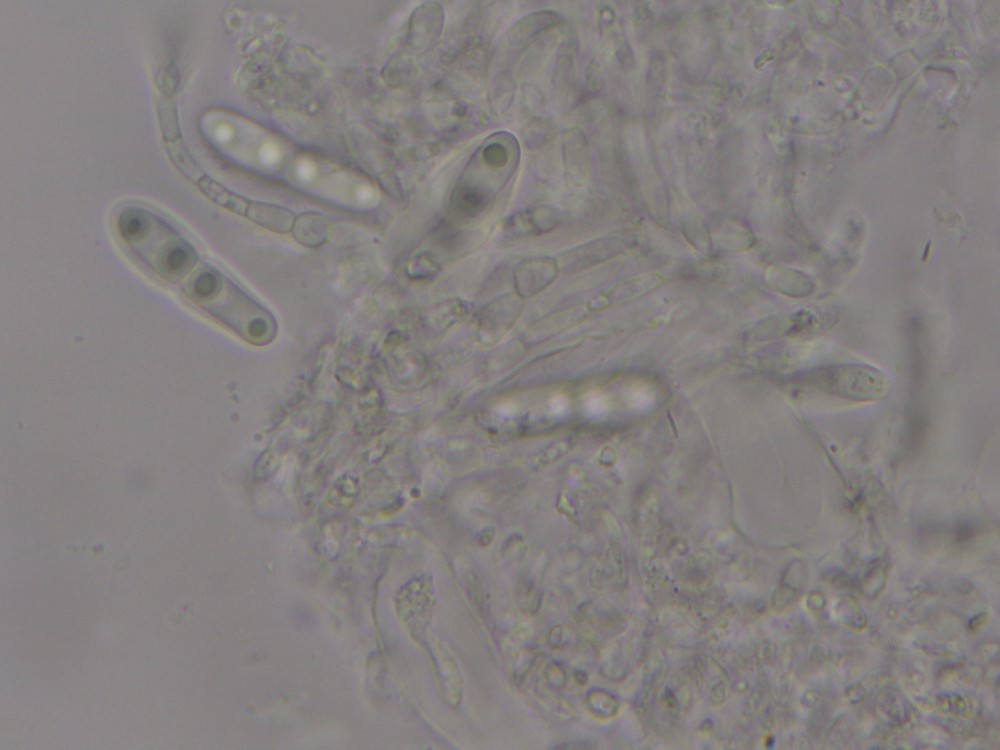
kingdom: Fungi
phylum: Ascomycota
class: Dothideomycetes
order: Pleosporales
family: Naetrocymbaceae
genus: Naetrocymbe
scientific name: Naetrocymbe punctiformis
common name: punkt-arthopyrenia
